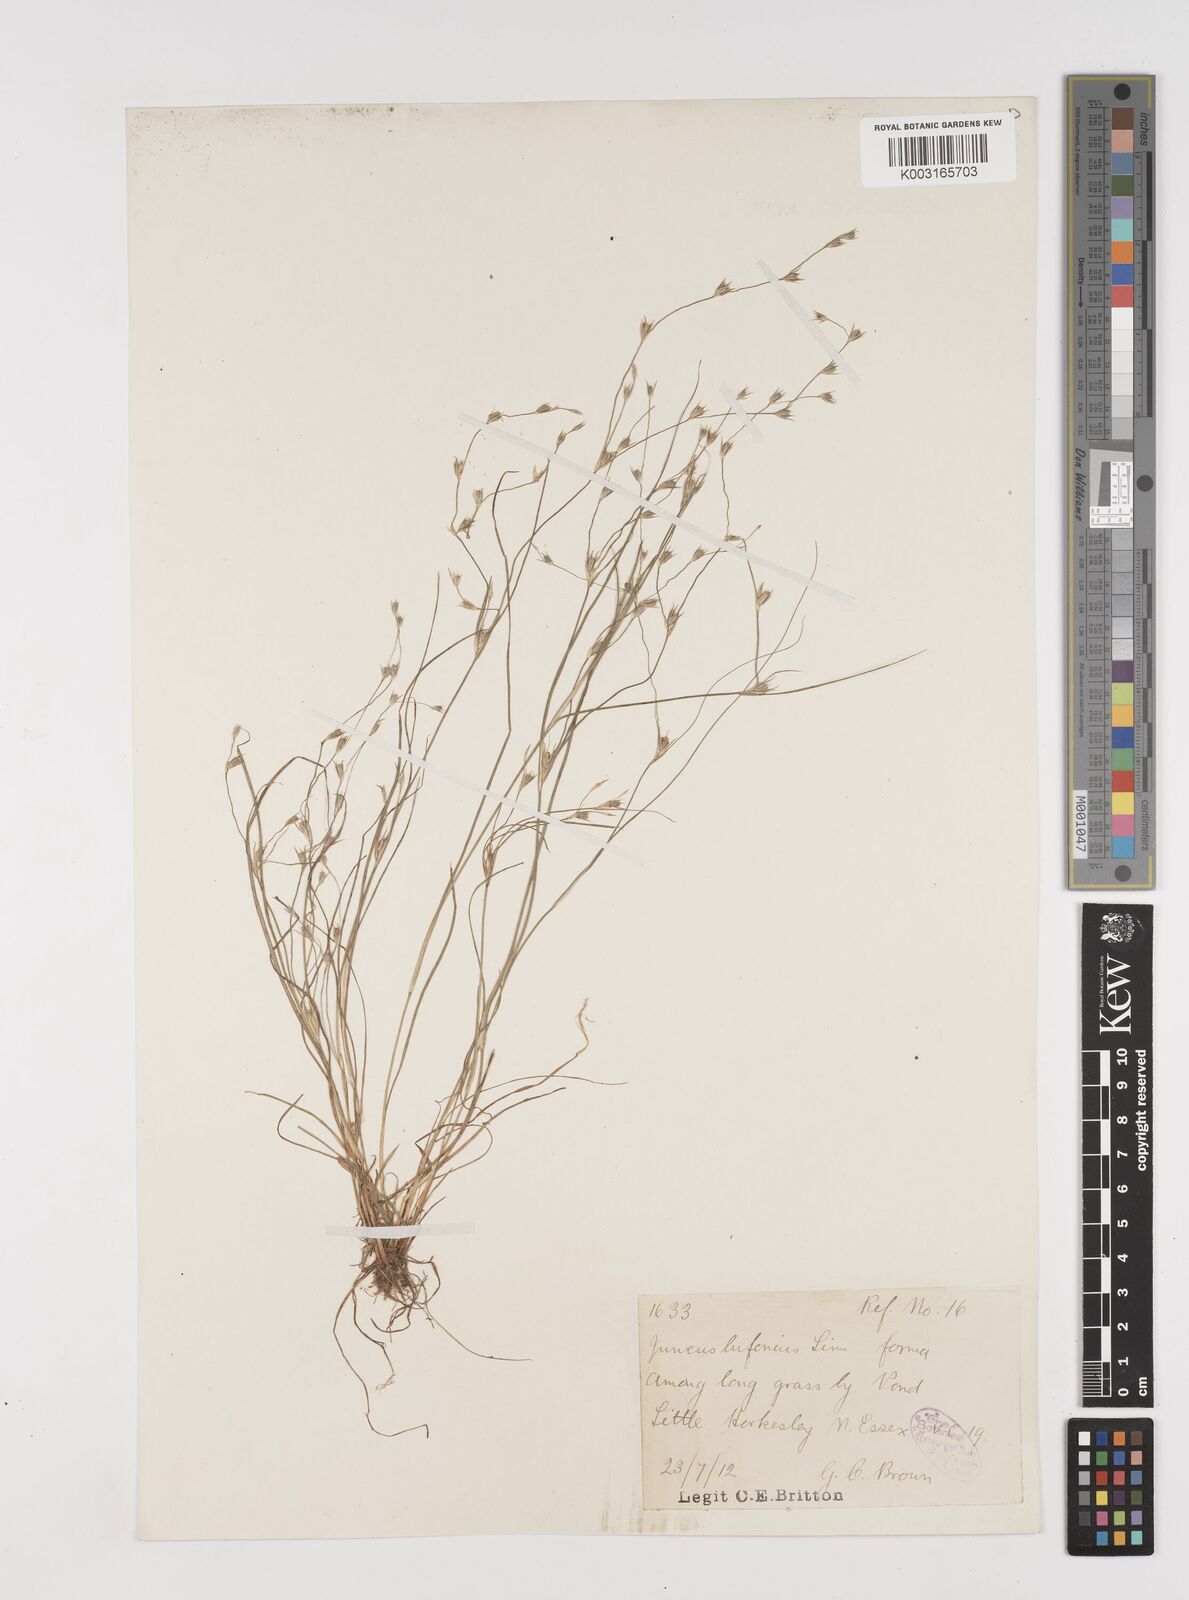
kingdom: Plantae
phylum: Tracheophyta
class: Liliopsida
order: Poales
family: Juncaceae
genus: Juncus
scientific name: Juncus bufonius
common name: Toad rush
